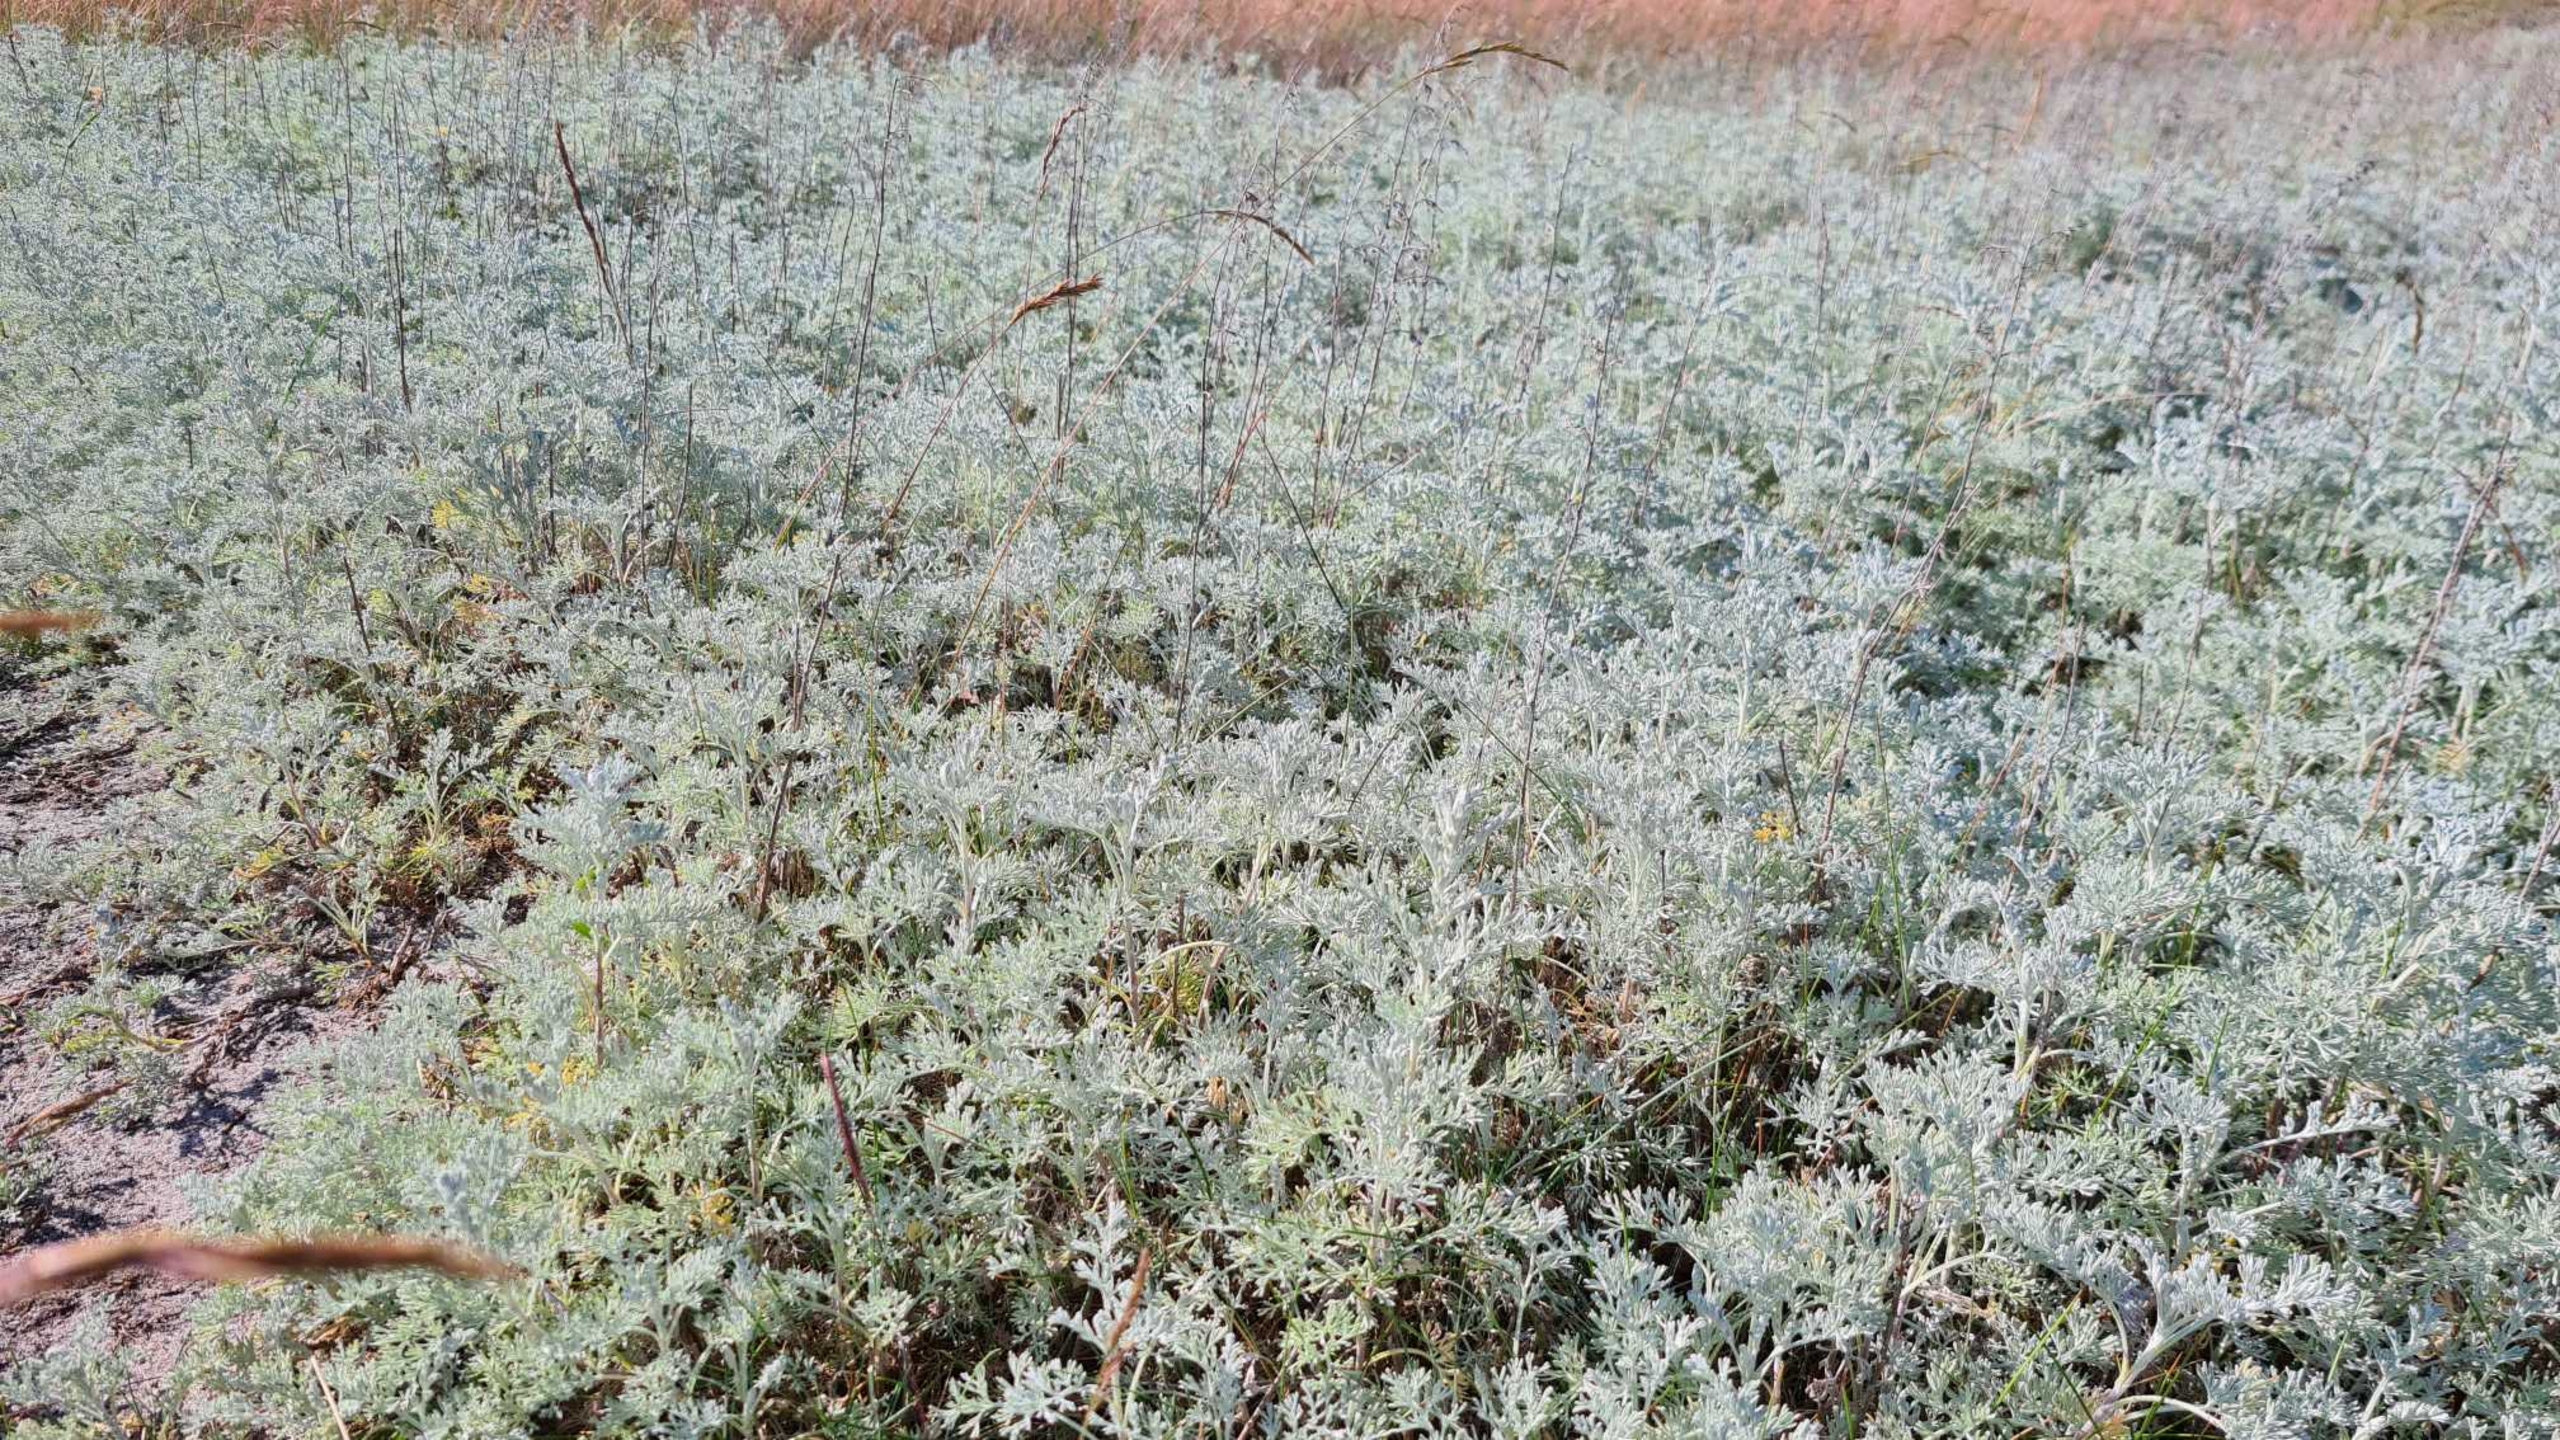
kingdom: Plantae
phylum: Tracheophyta
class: Magnoliopsida
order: Asterales
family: Asteraceae
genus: Artemisia
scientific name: Artemisia maritima
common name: Strandmalurt
